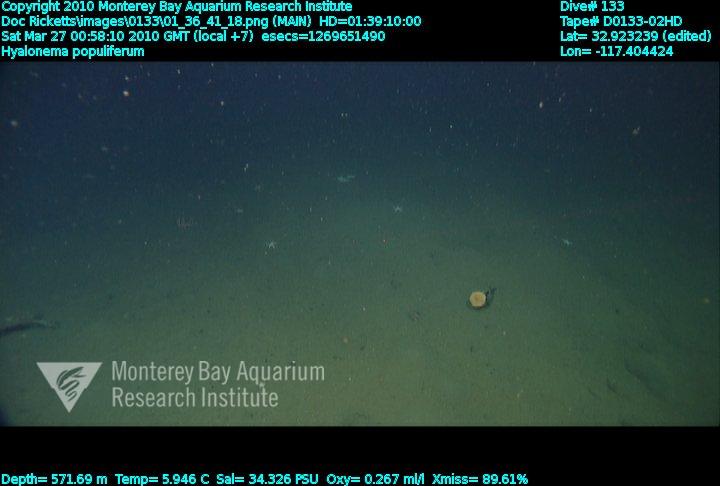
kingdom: Animalia
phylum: Porifera
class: Hexactinellida
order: Amphidiscosida
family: Hyalonematidae
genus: Hyalonema
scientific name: Hyalonema populiferum
